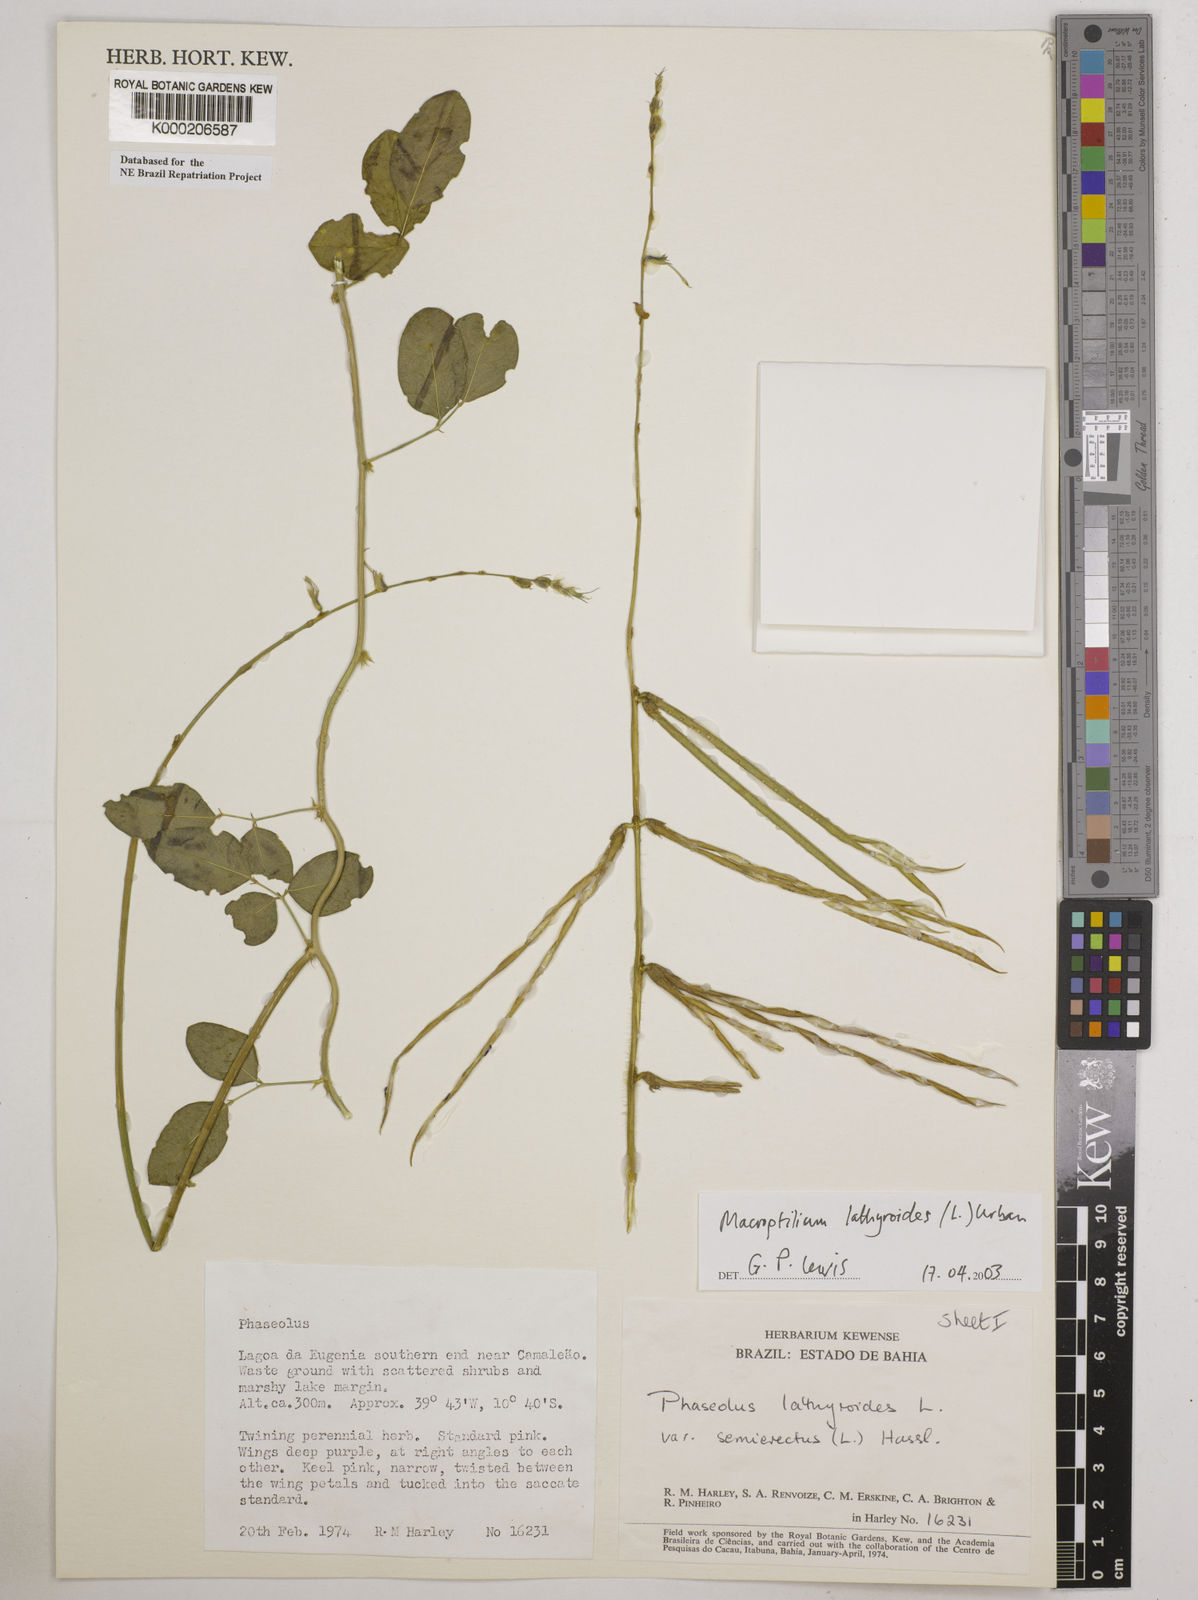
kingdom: Plantae
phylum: Tracheophyta
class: Magnoliopsida
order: Fabales
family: Fabaceae
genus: Macroptilium
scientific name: Macroptilium lathyroides
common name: Wild bushbean
